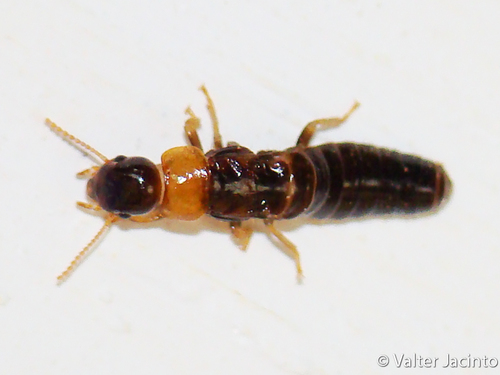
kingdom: Animalia
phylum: Arthropoda
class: Insecta
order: Blattodea
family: Kalotermitidae
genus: Kalotermes
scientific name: Kalotermes flavicollis
